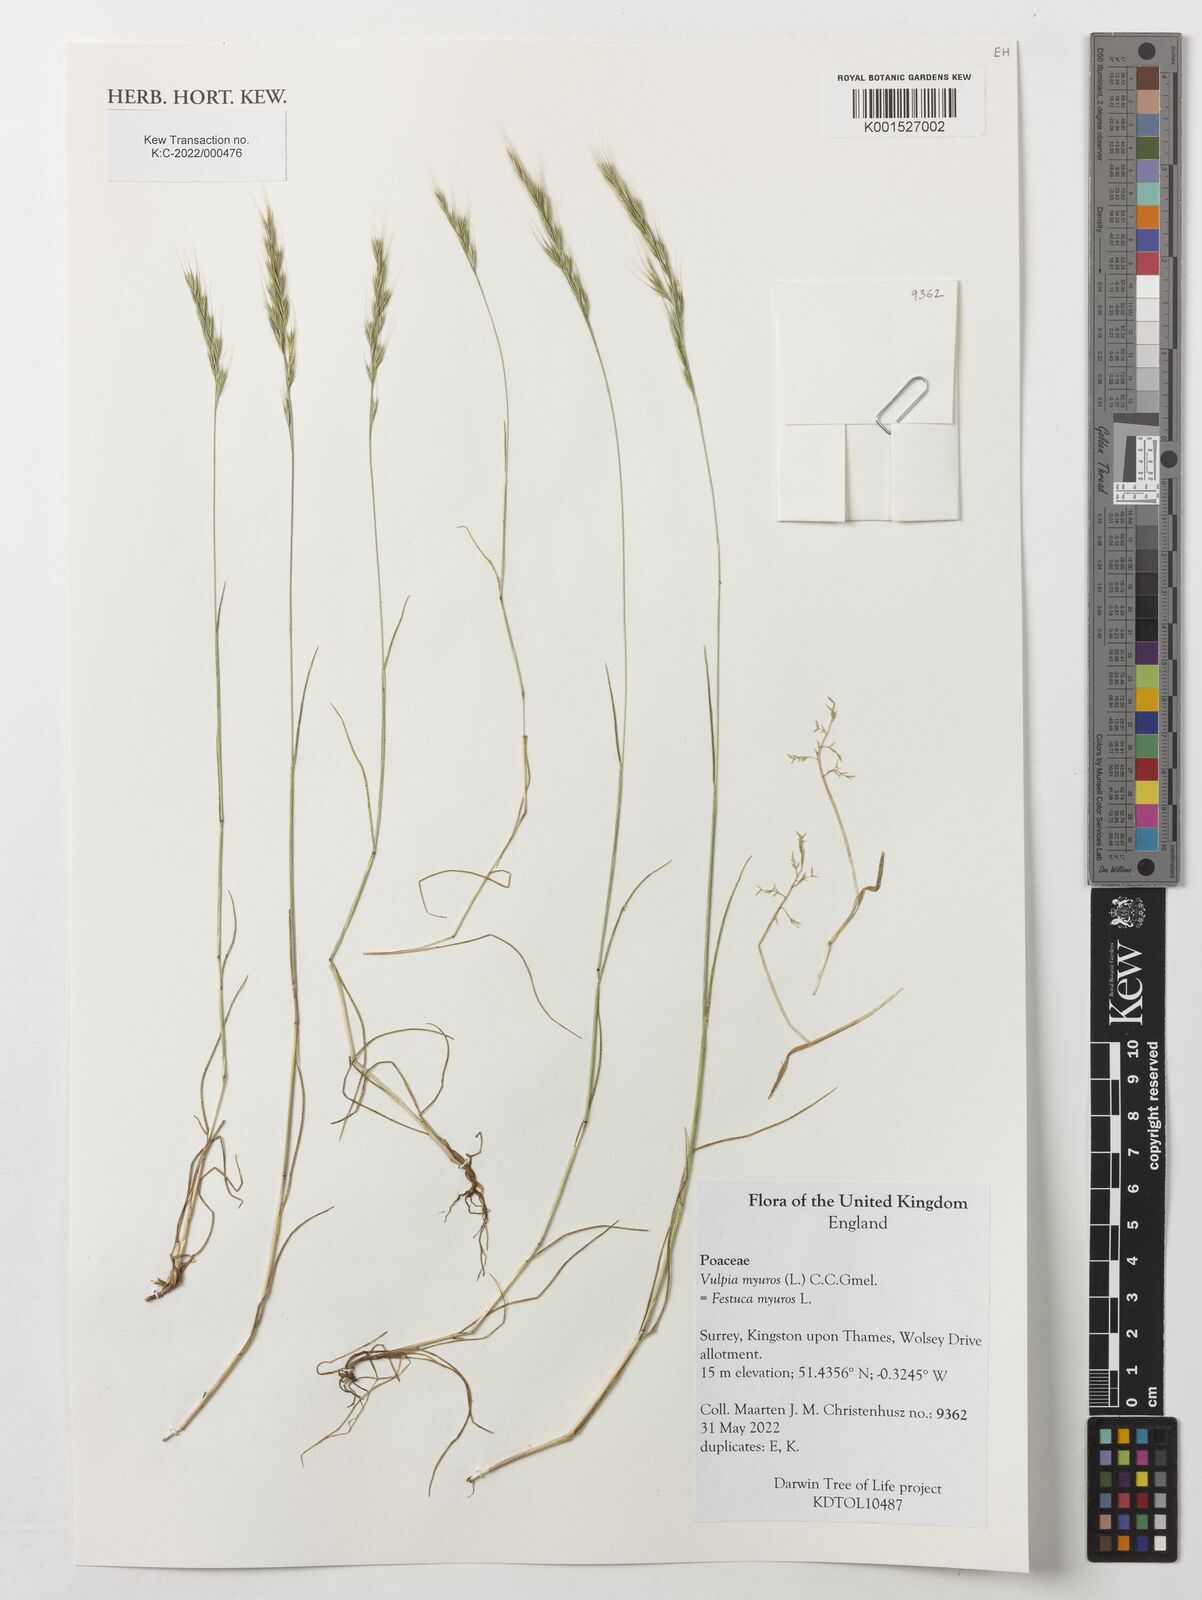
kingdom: Plantae
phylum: Tracheophyta
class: Liliopsida
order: Poales
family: Poaceae
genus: Festuca
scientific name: Festuca myuros
